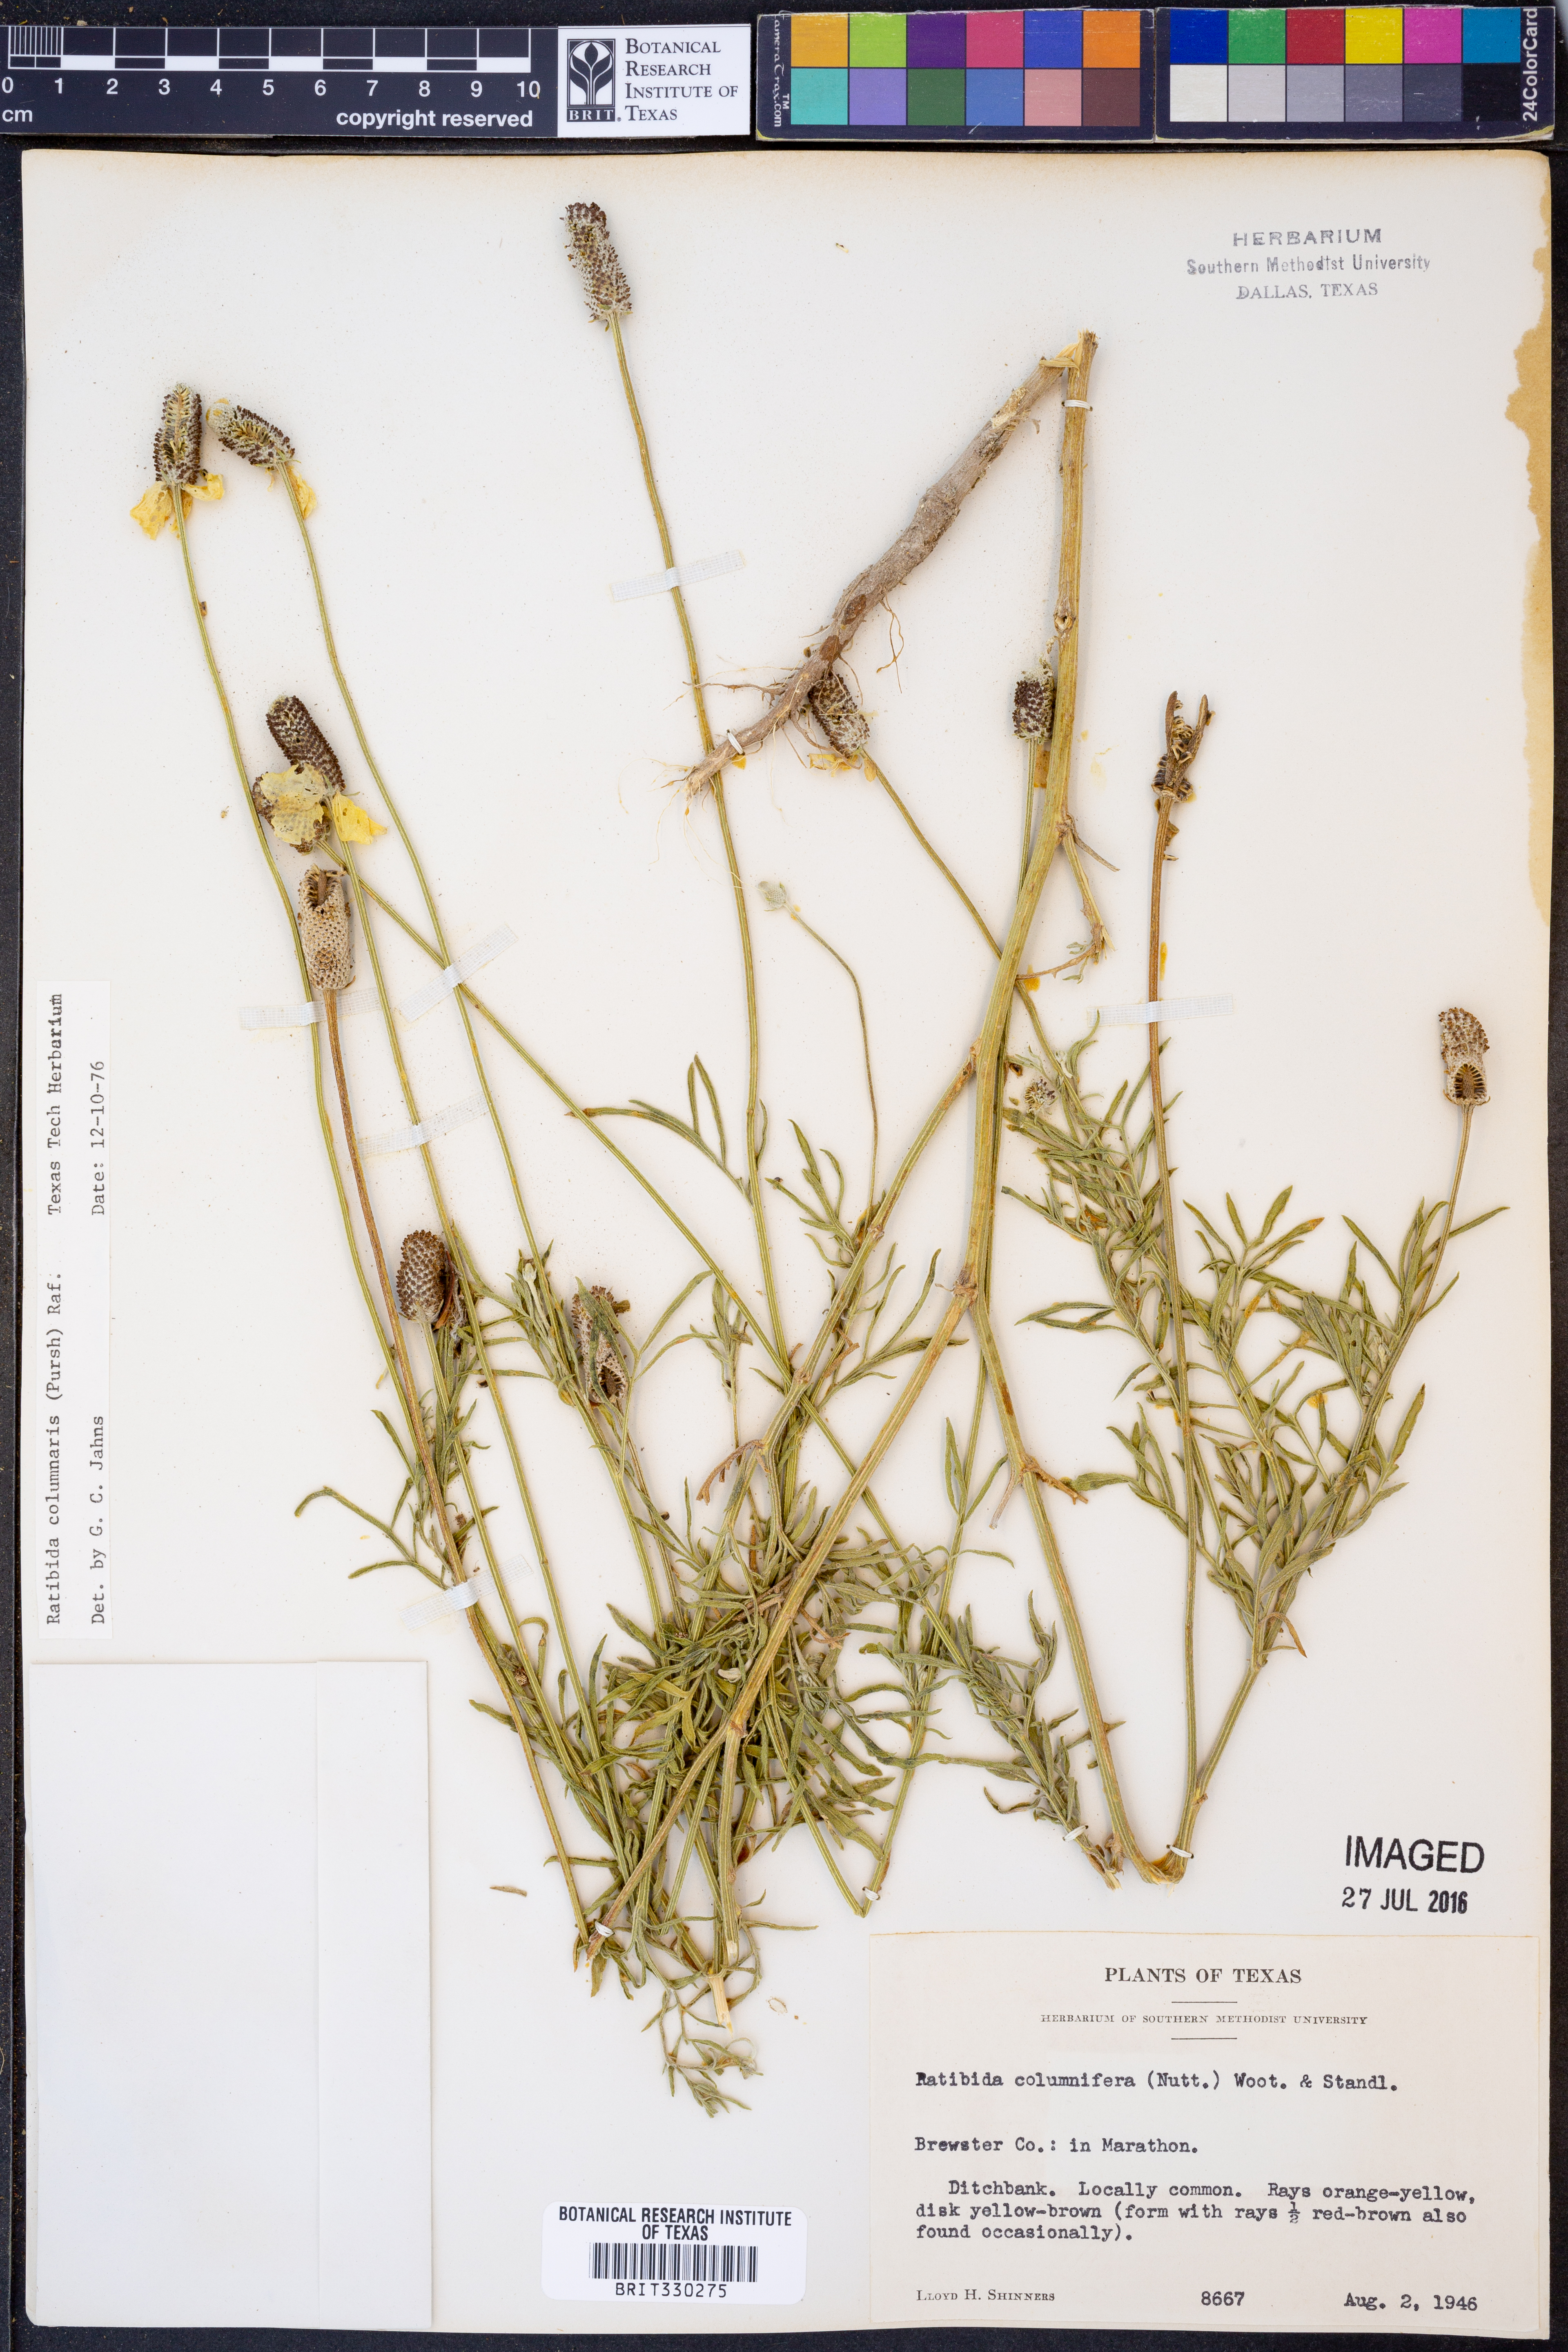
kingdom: Plantae
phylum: Tracheophyta
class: Magnoliopsida
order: Asterales
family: Asteraceae
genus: Ratibida
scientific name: Ratibida columnifera
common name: Prairie coneflower
